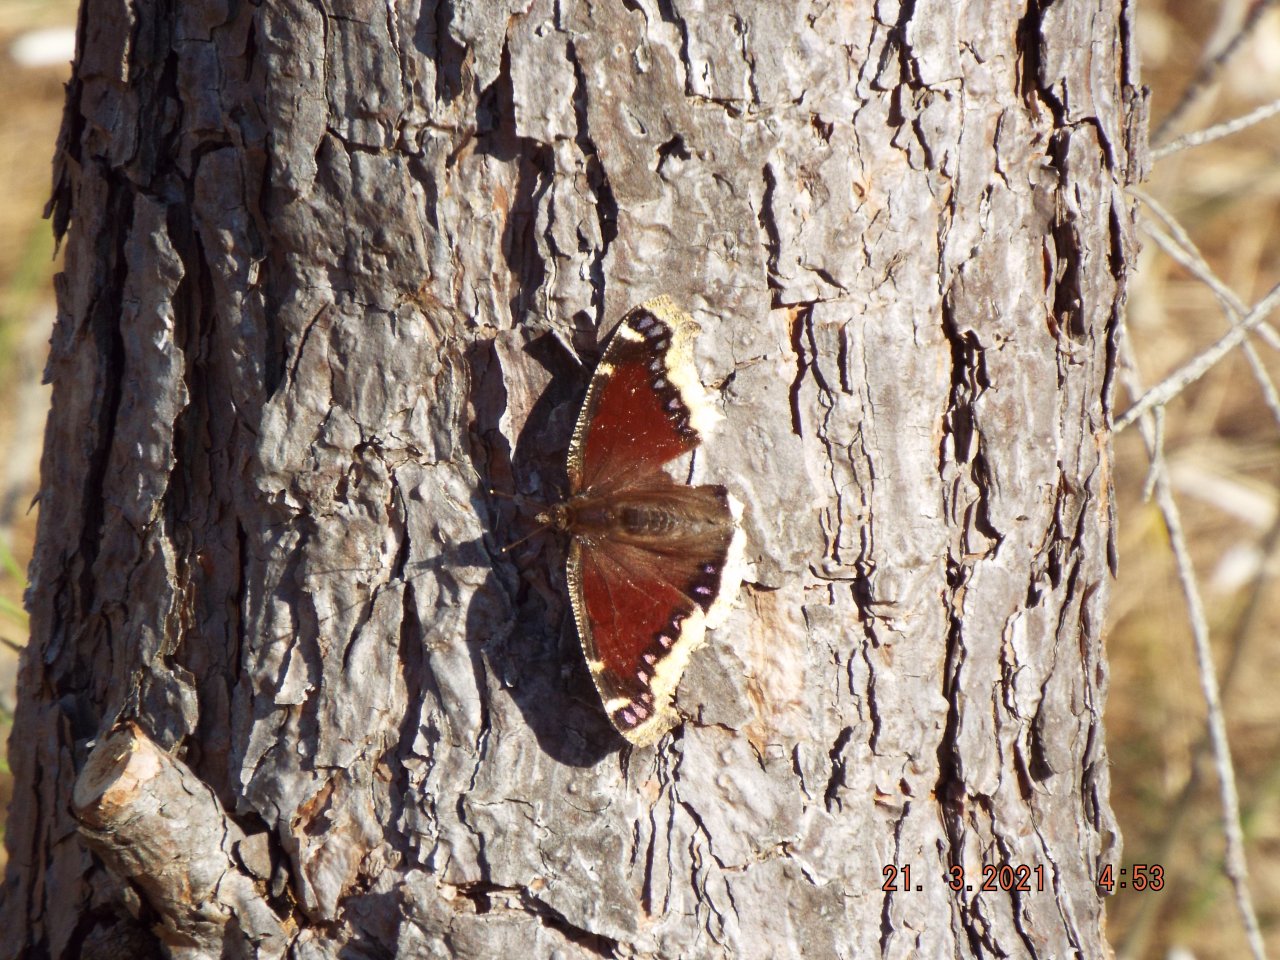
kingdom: Animalia
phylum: Arthropoda
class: Insecta
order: Lepidoptera
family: Nymphalidae
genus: Nymphalis
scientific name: Nymphalis antiopa
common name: Mourning Cloak
